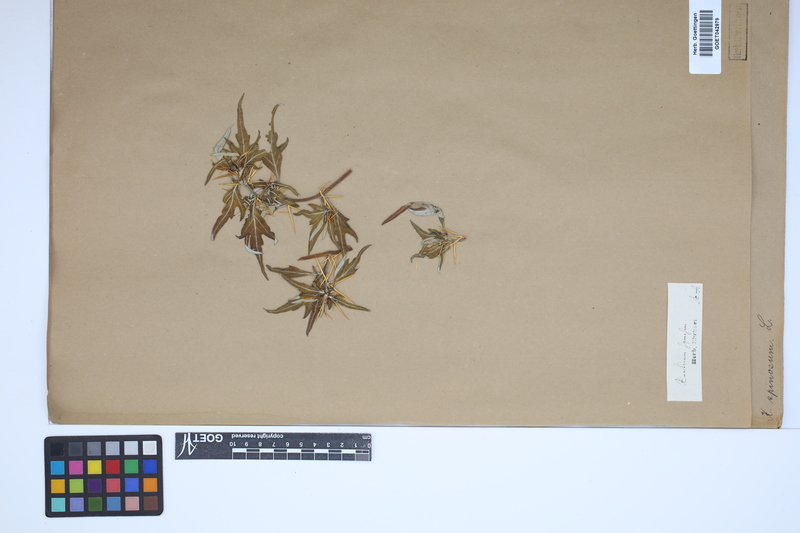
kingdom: Plantae
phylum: Tracheophyta
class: Magnoliopsida
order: Asterales
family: Asteraceae
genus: Xanthium
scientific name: Xanthium spinosum
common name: Spiny cocklebur
